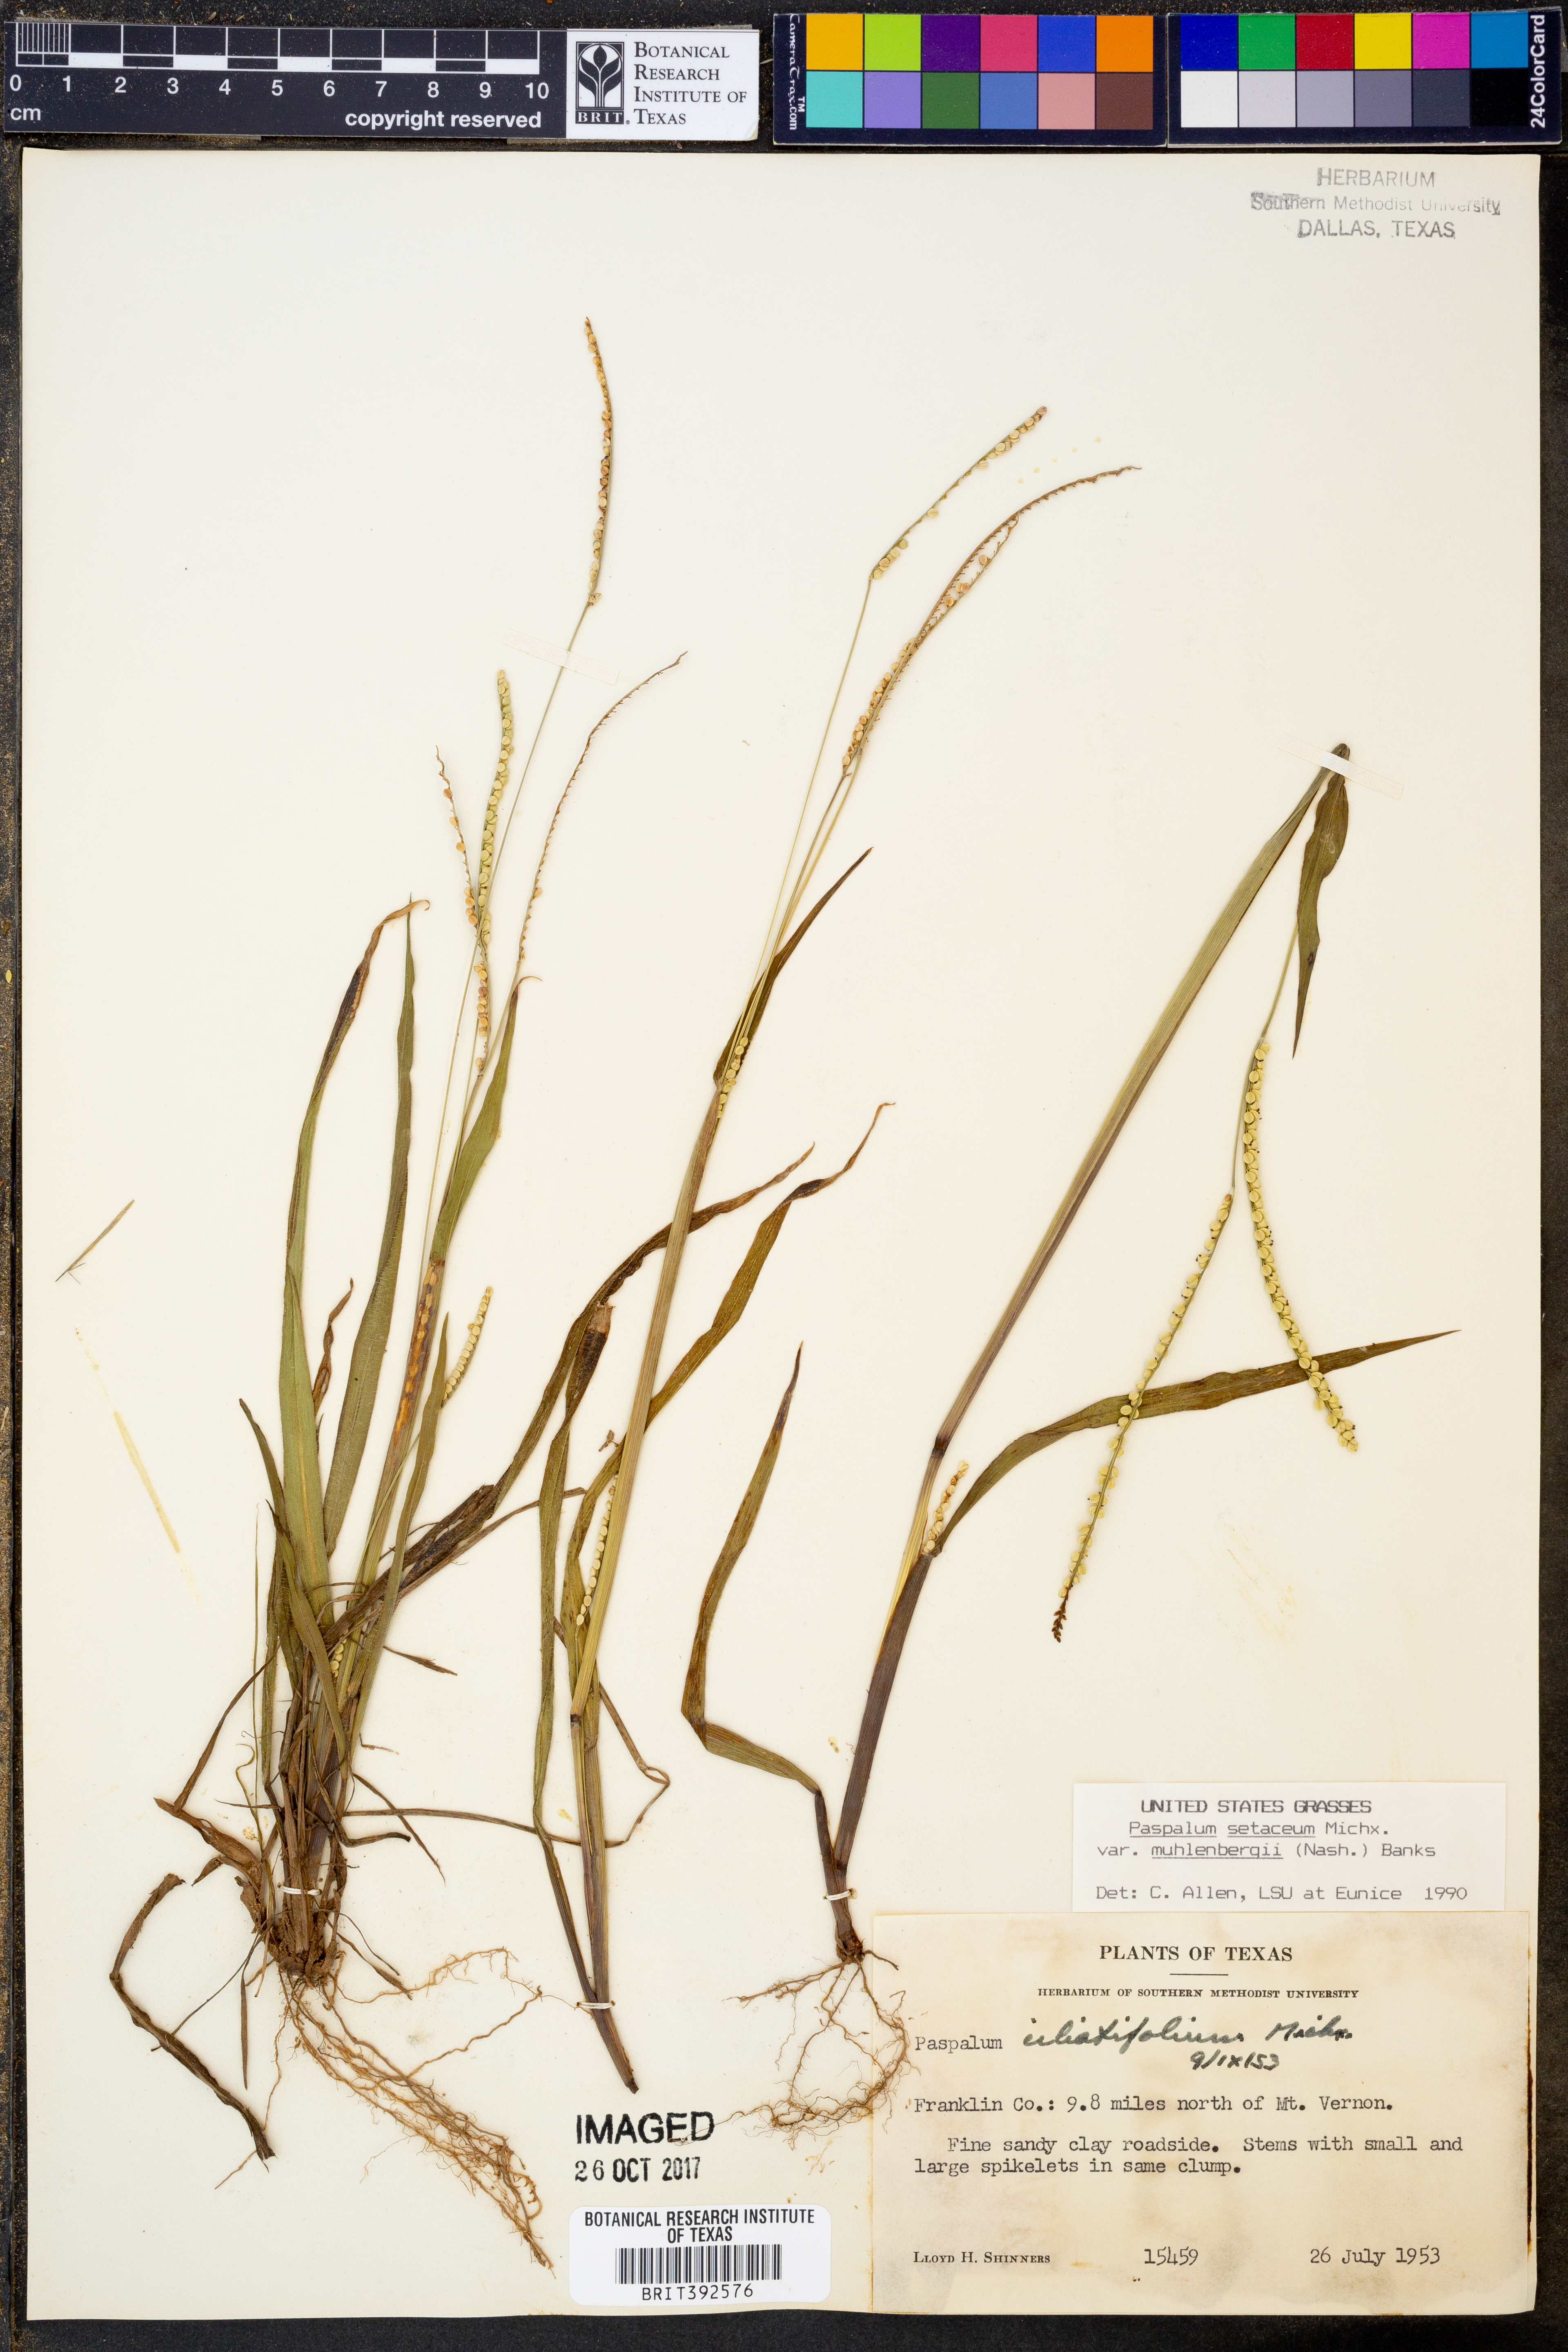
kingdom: Plantae
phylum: Tracheophyta
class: Liliopsida
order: Poales
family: Poaceae
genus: Paspalum
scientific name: Paspalum setaceum
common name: Slender paspalum
